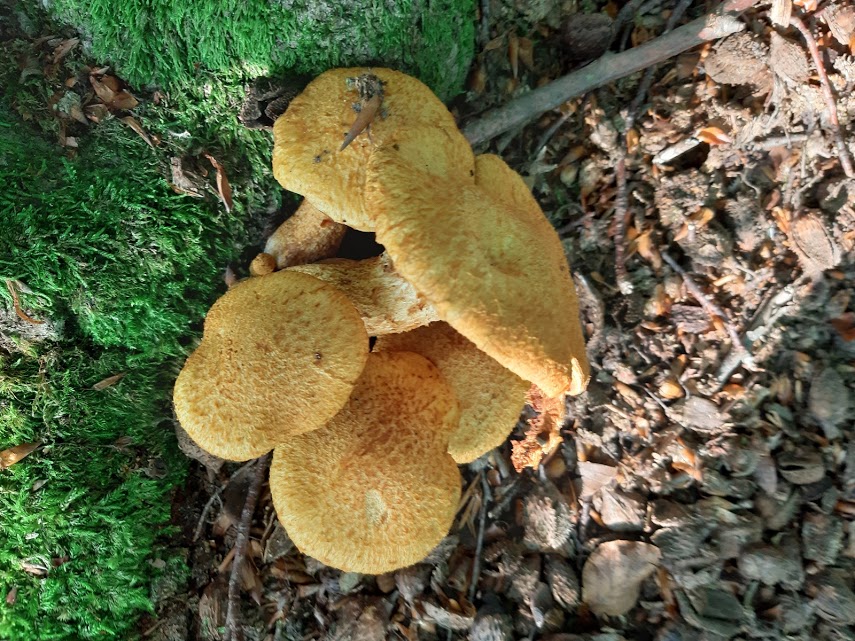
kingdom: Fungi
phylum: Basidiomycota
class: Agaricomycetes
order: Agaricales
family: Hymenogastraceae
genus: Gymnopilus
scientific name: Gymnopilus spectabilis
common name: fibret flammehat
